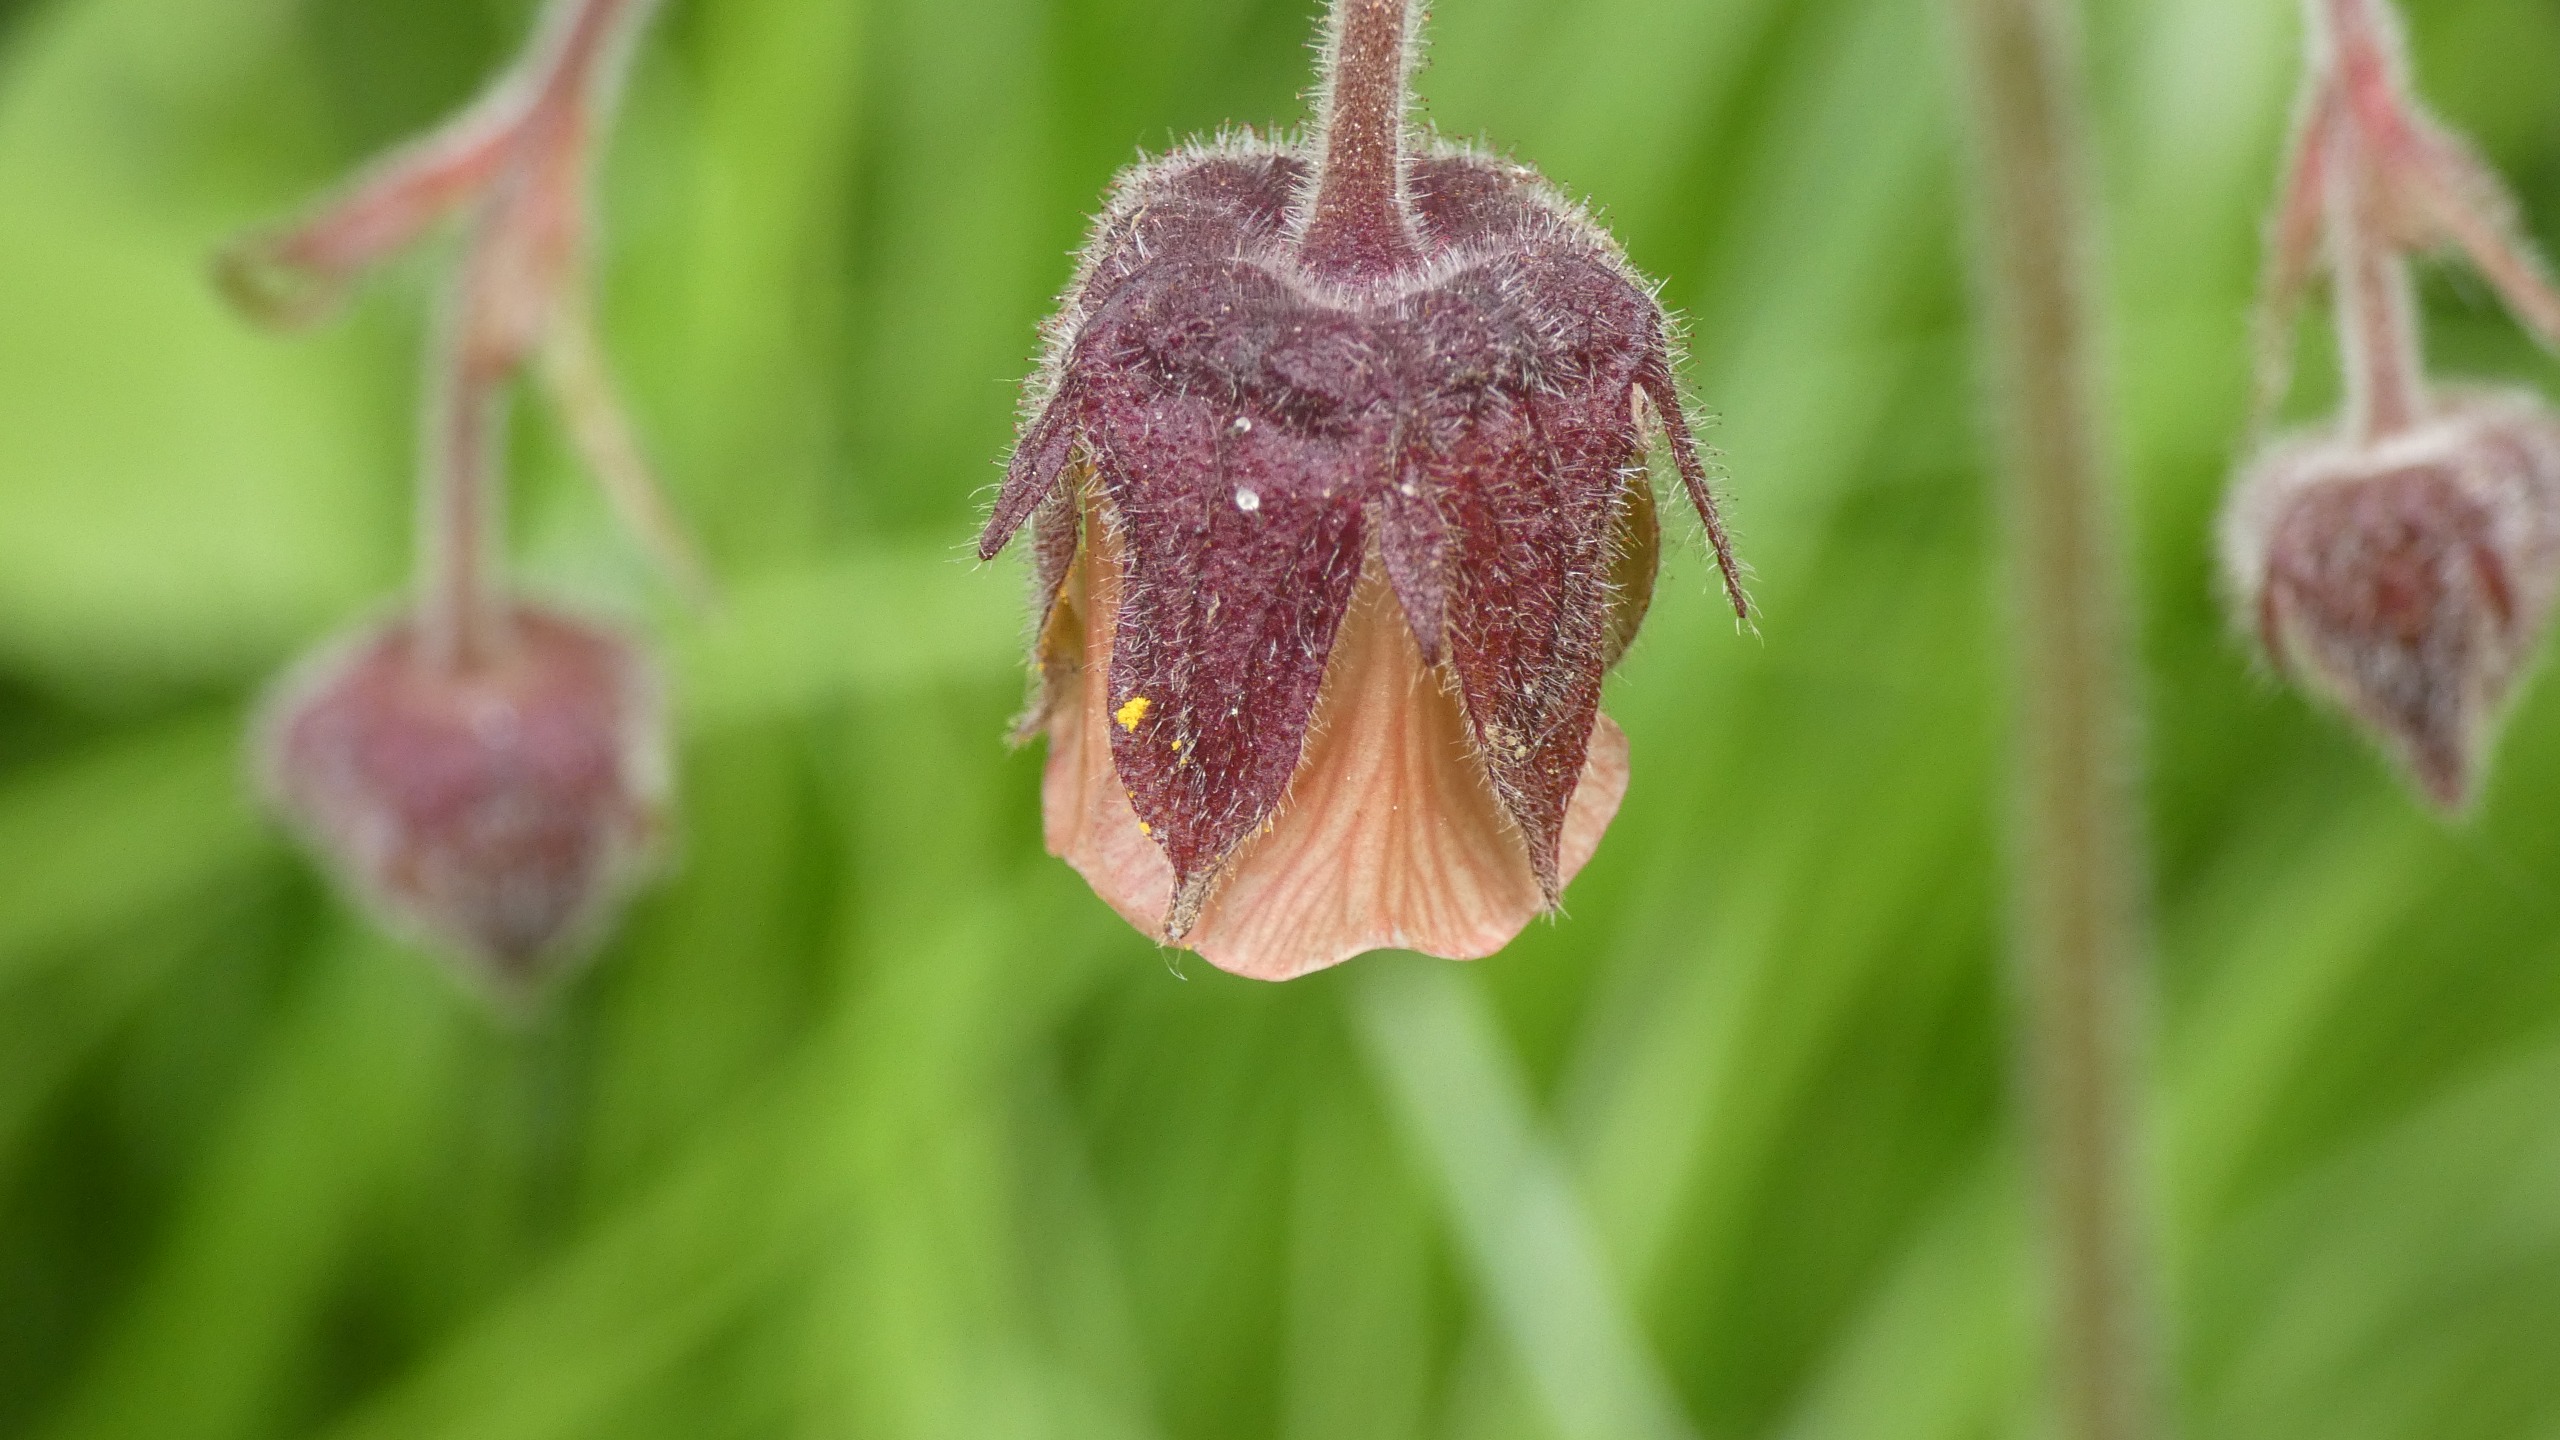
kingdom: Plantae
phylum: Tracheophyta
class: Magnoliopsida
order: Rosales
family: Rosaceae
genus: Geum
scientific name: Geum rivale
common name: Eng-nellikerod
